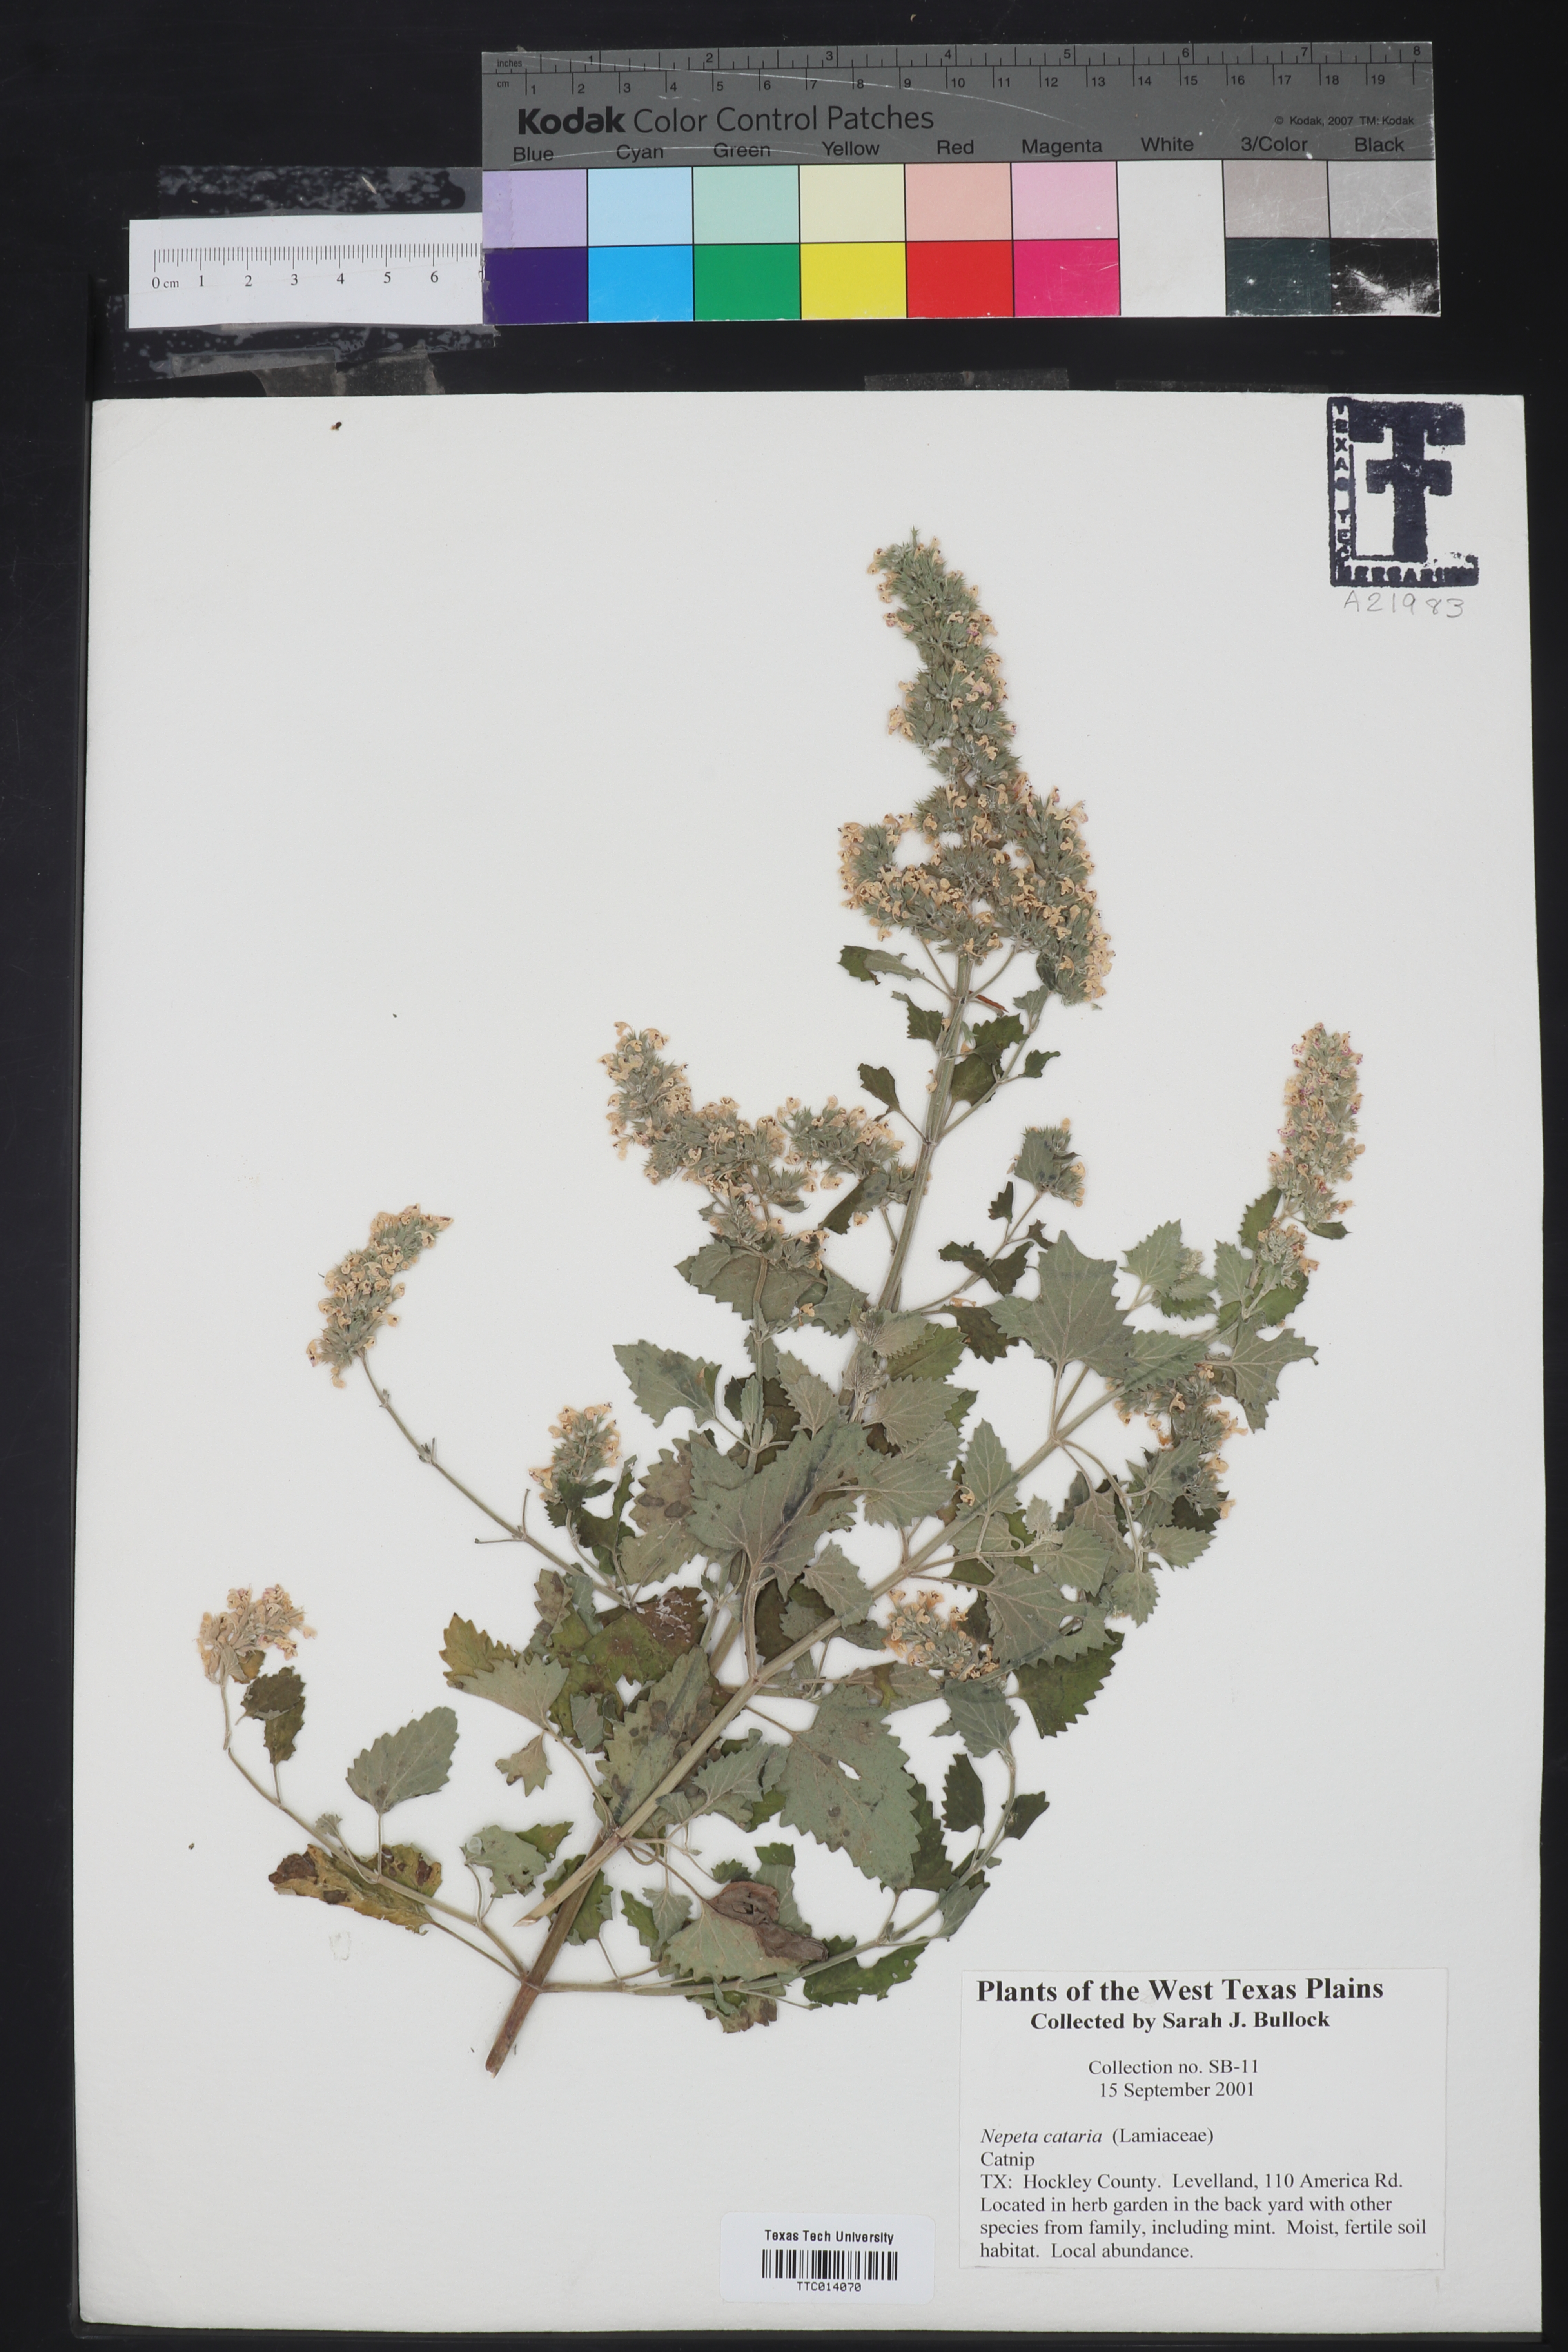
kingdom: Plantae
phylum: Tracheophyta
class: Magnoliopsida
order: Lamiales
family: Lamiaceae
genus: Nepeta
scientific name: Nepeta cataria
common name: Catnip
